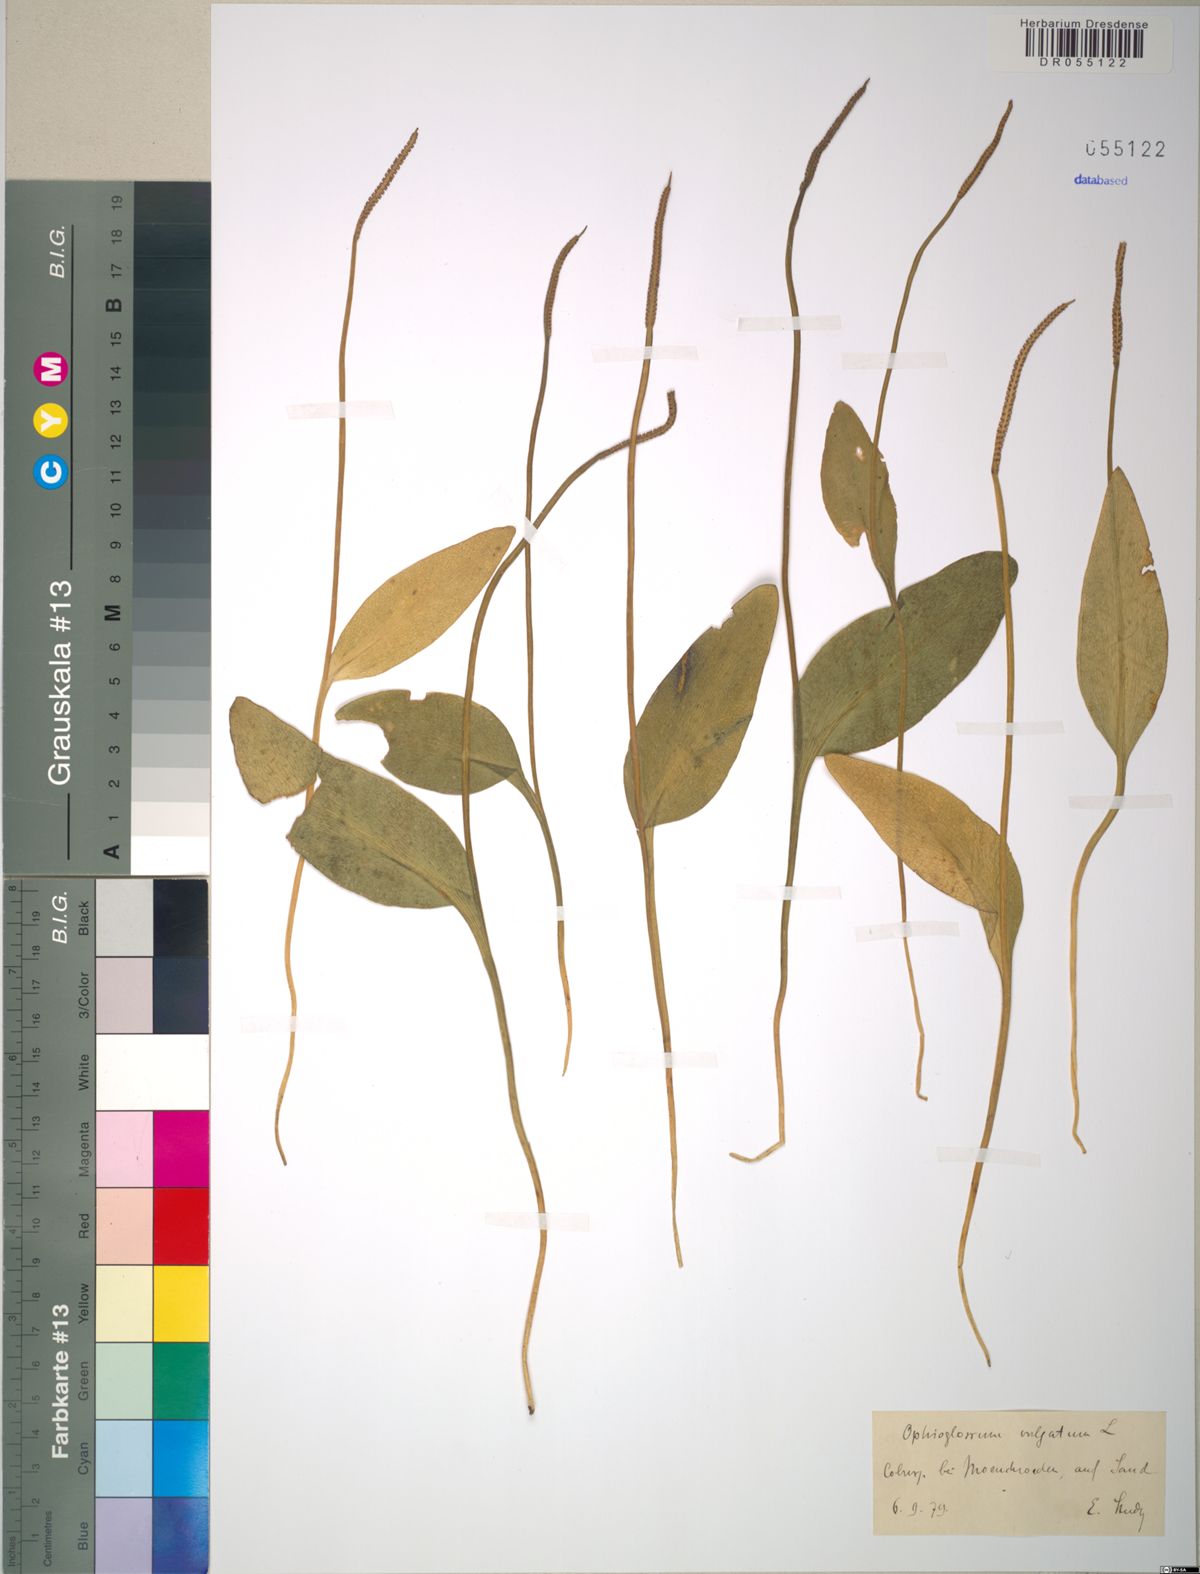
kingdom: Plantae
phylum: Tracheophyta
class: Polypodiopsida
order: Ophioglossales
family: Ophioglossaceae
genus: Ophioglossum
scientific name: Ophioglossum vulgatum
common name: Adder's-tongue
